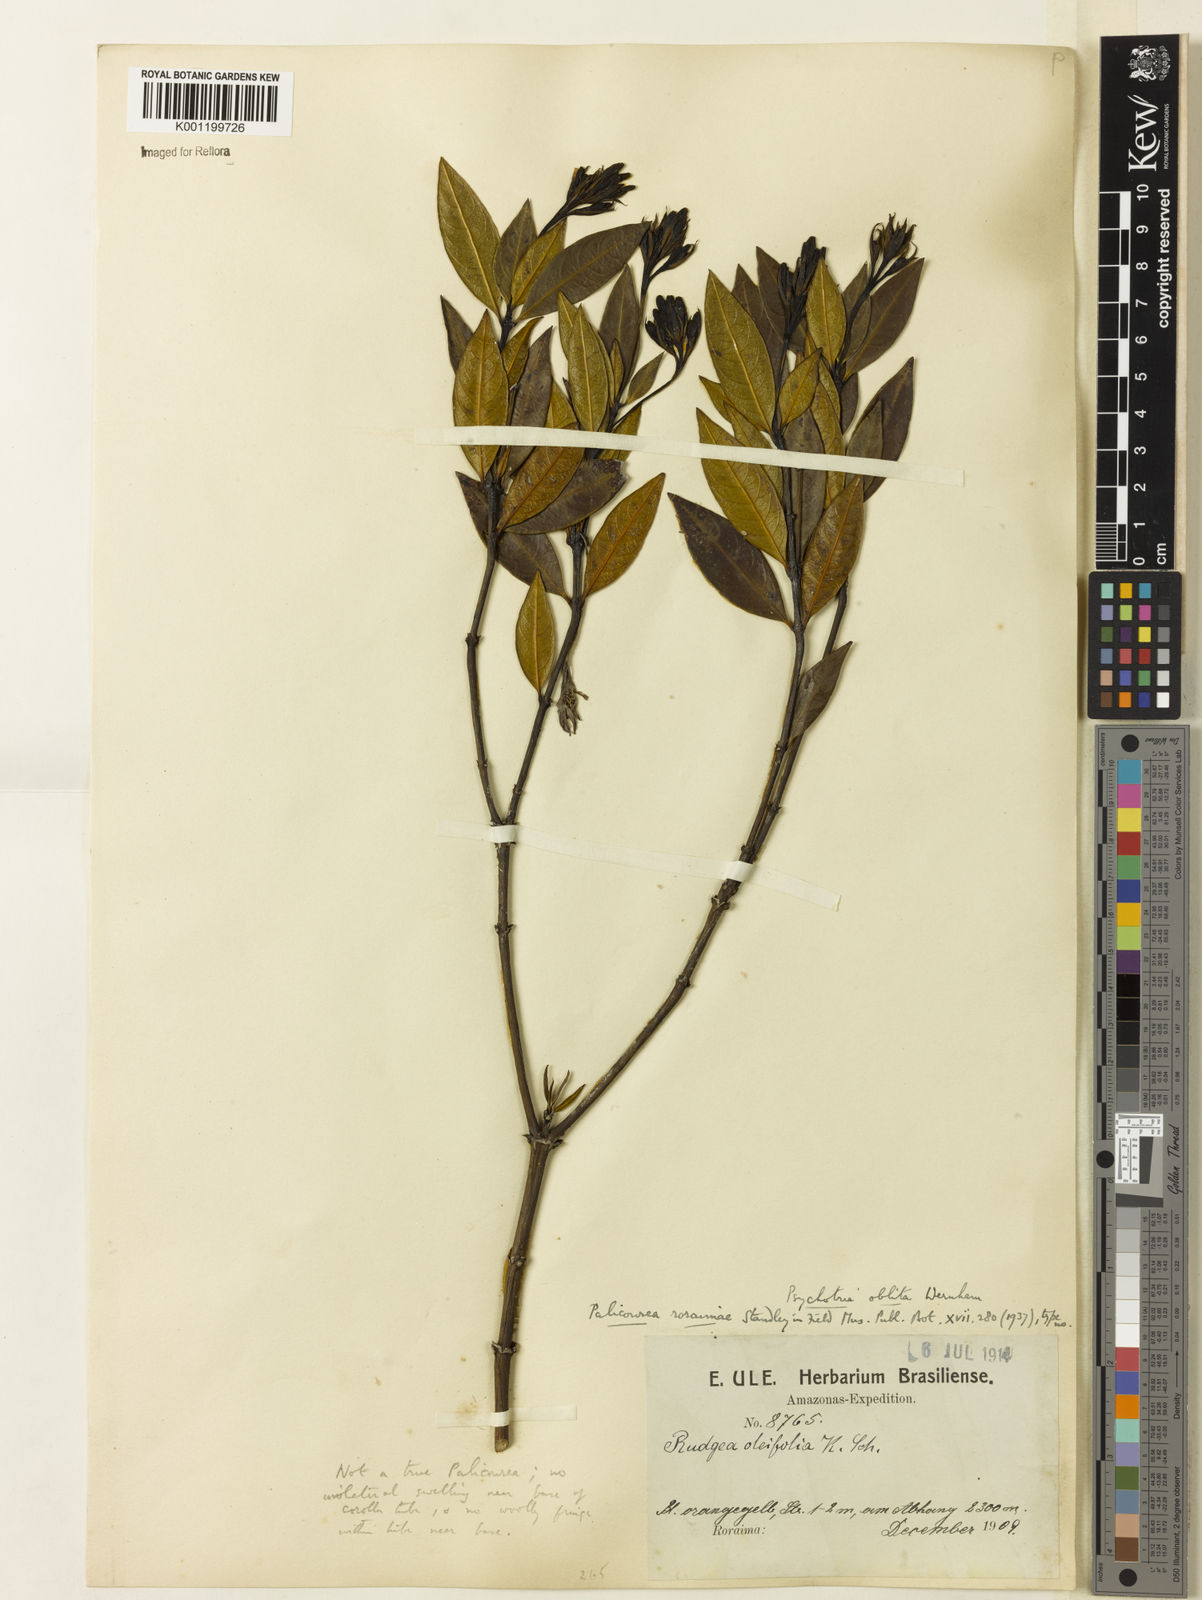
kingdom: Plantae
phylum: Tracheophyta
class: Magnoliopsida
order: Gentianales
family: Rubiaceae
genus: Palicourea
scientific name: Palicourea oblita
